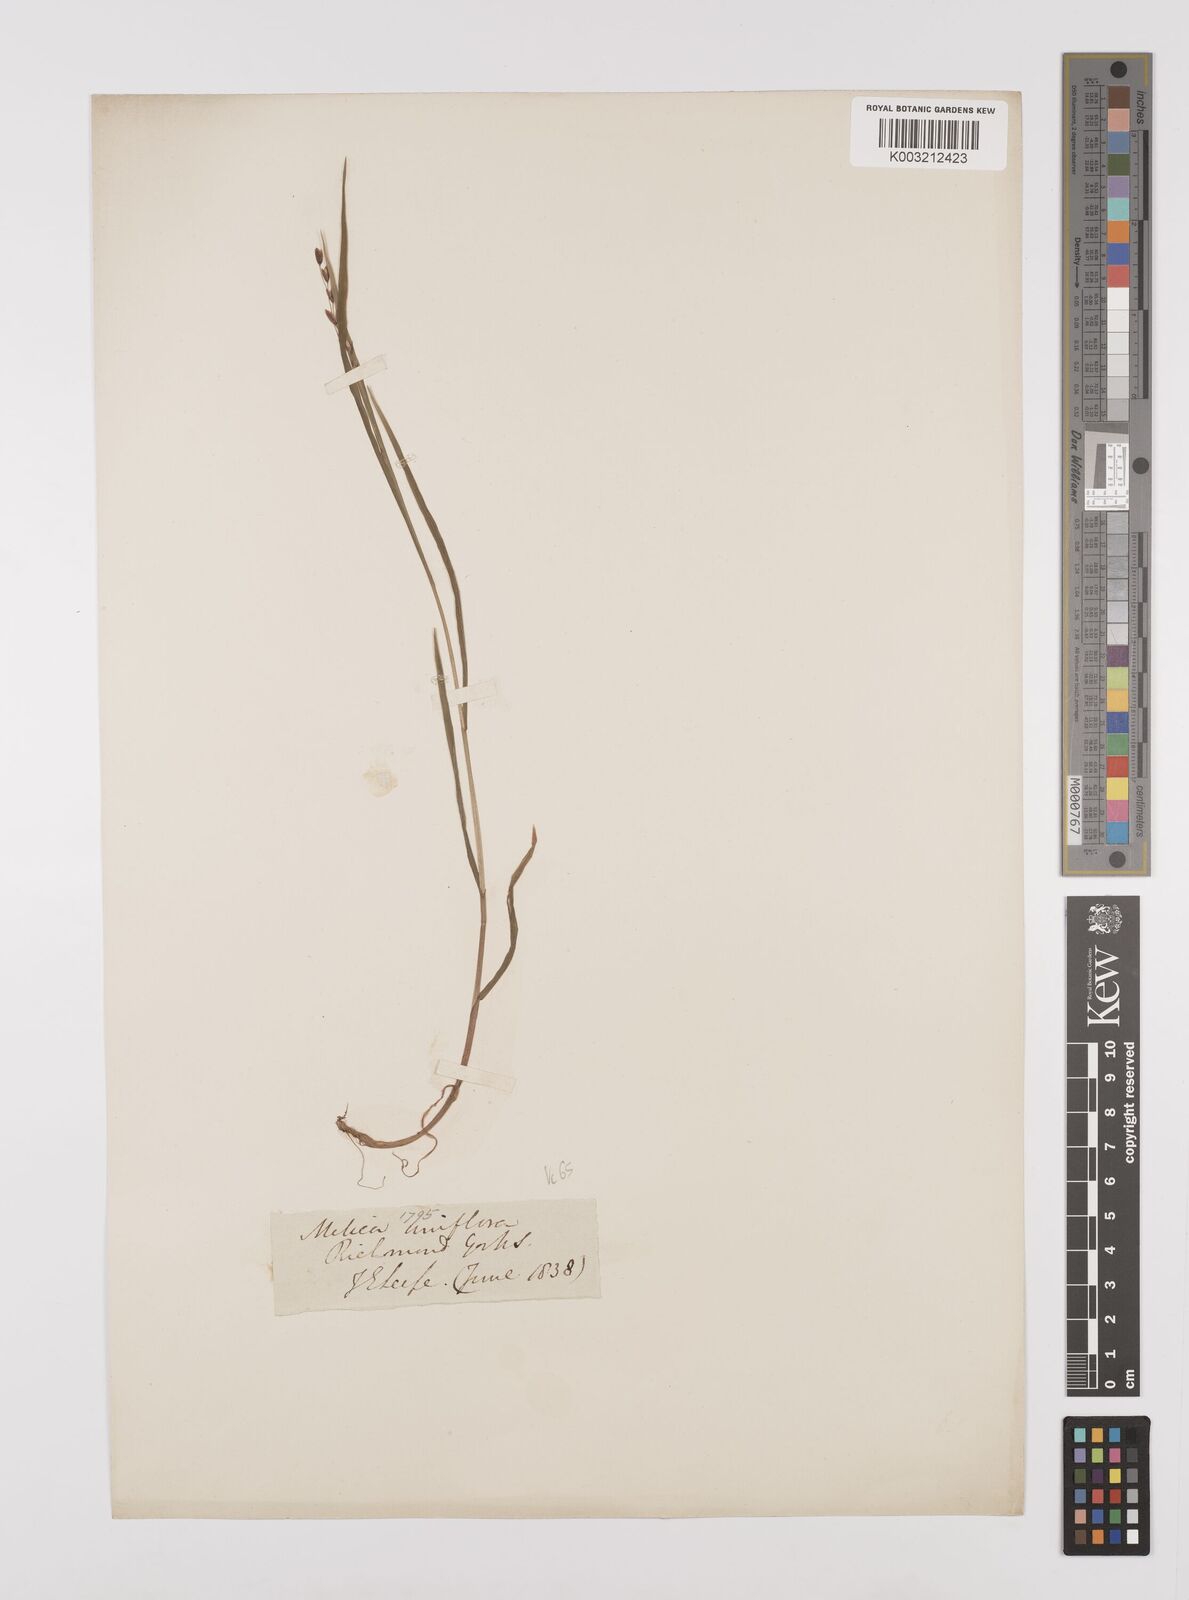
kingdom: Plantae
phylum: Tracheophyta
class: Liliopsida
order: Poales
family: Poaceae
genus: Melica
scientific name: Melica uniflora
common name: Wood melick
